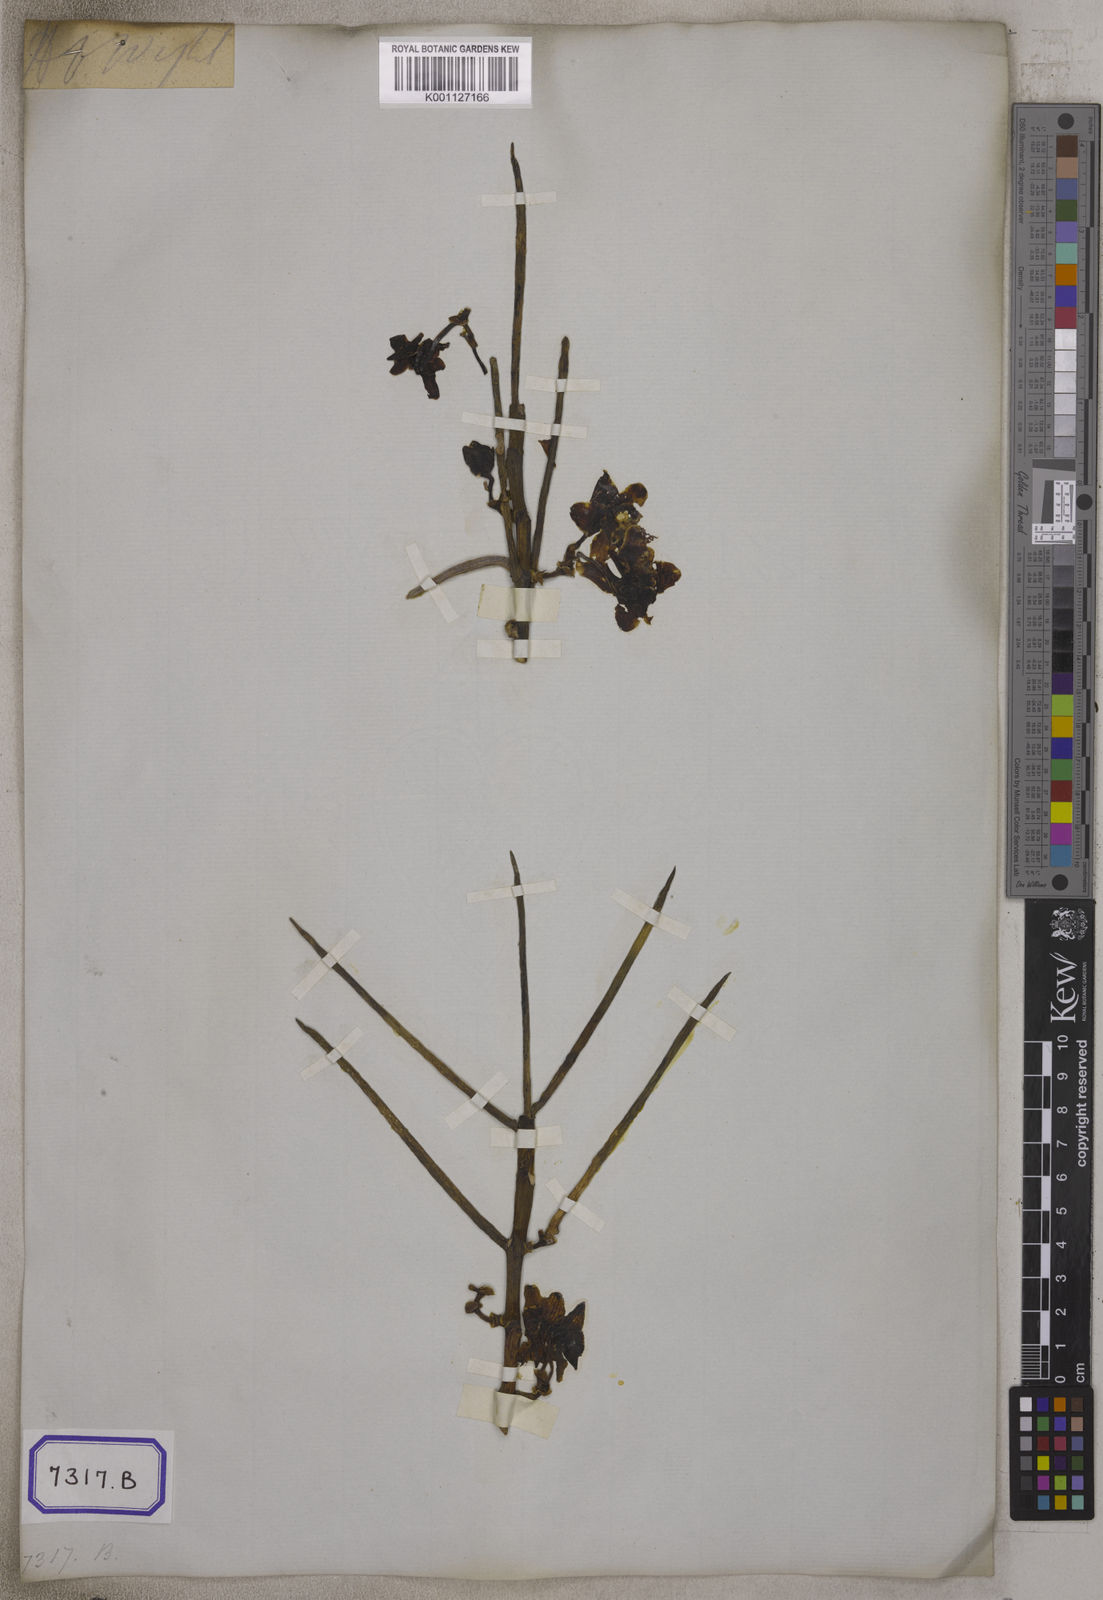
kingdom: Plantae
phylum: Tracheophyta
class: Liliopsida
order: Asparagales
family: Orchidaceae
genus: Papilionanthe
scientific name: Papilionanthe cylindrica
